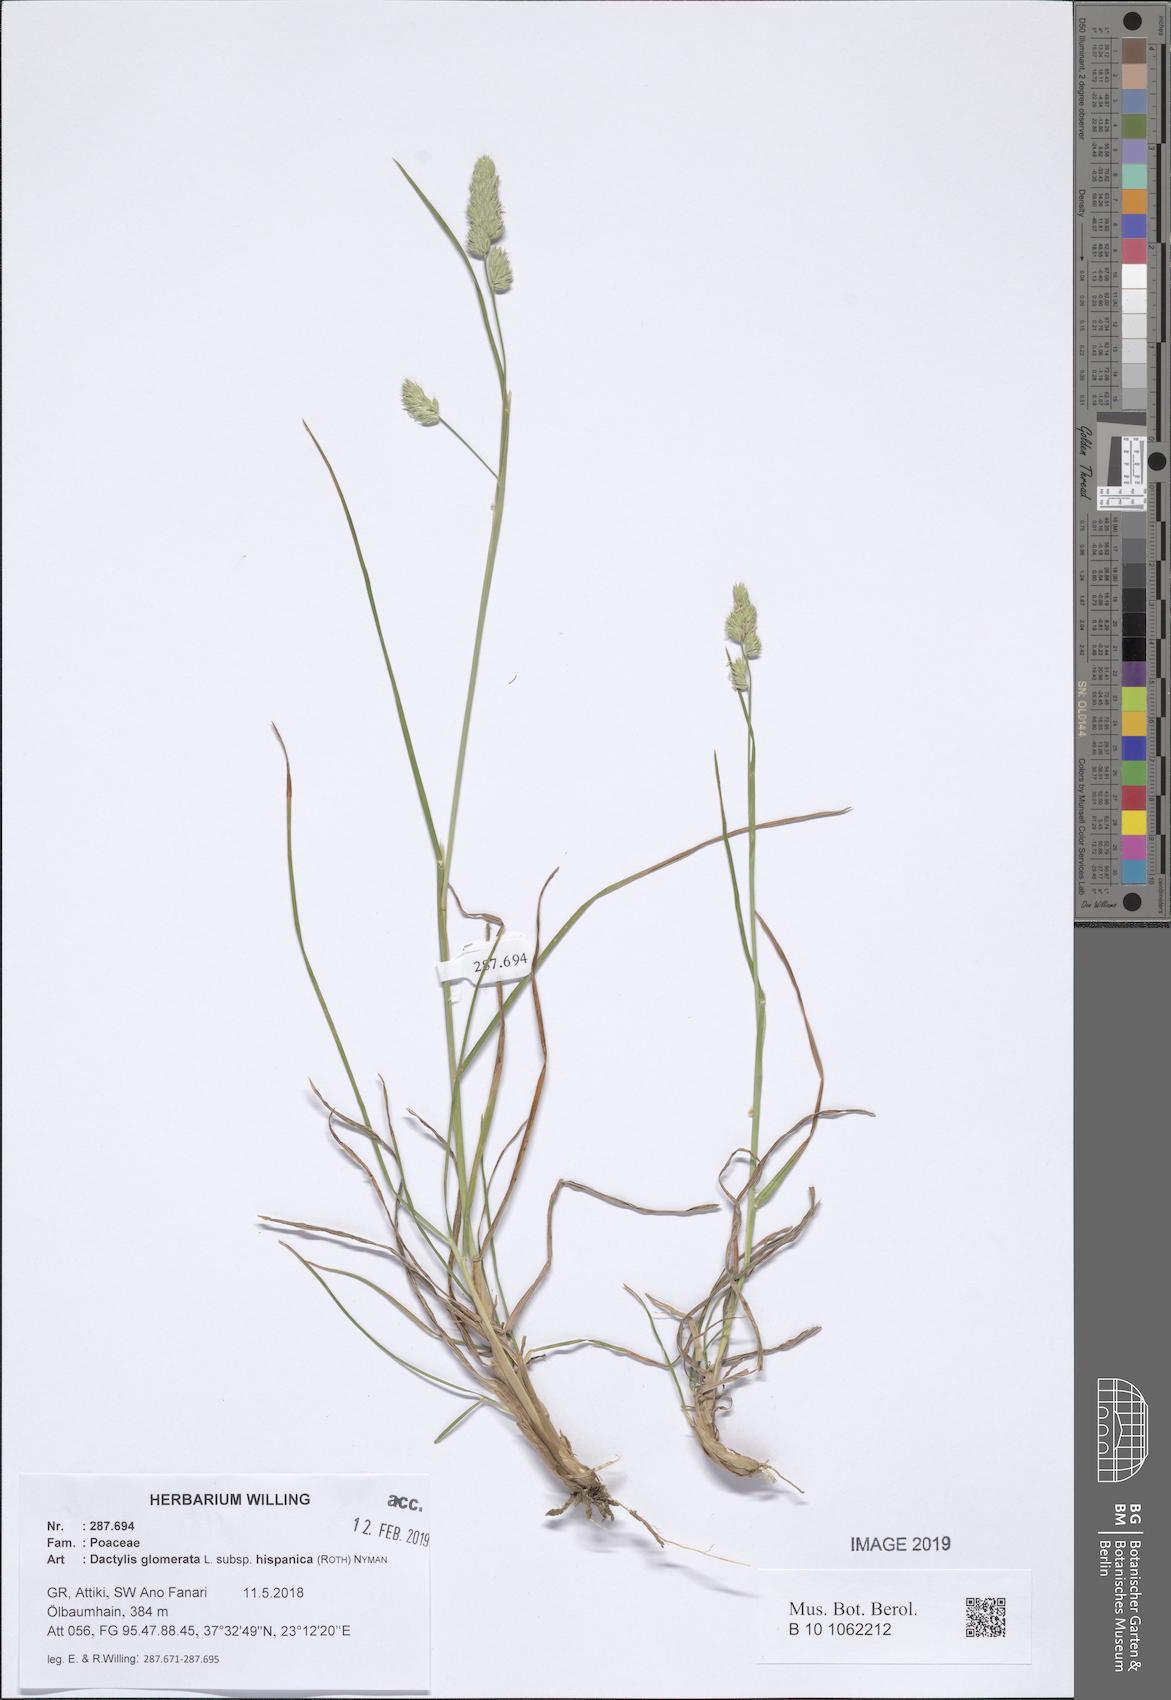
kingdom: Plantae
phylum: Tracheophyta
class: Liliopsida
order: Poales
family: Poaceae
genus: Dactylis
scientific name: Dactylis glomerata
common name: Orchardgrass
